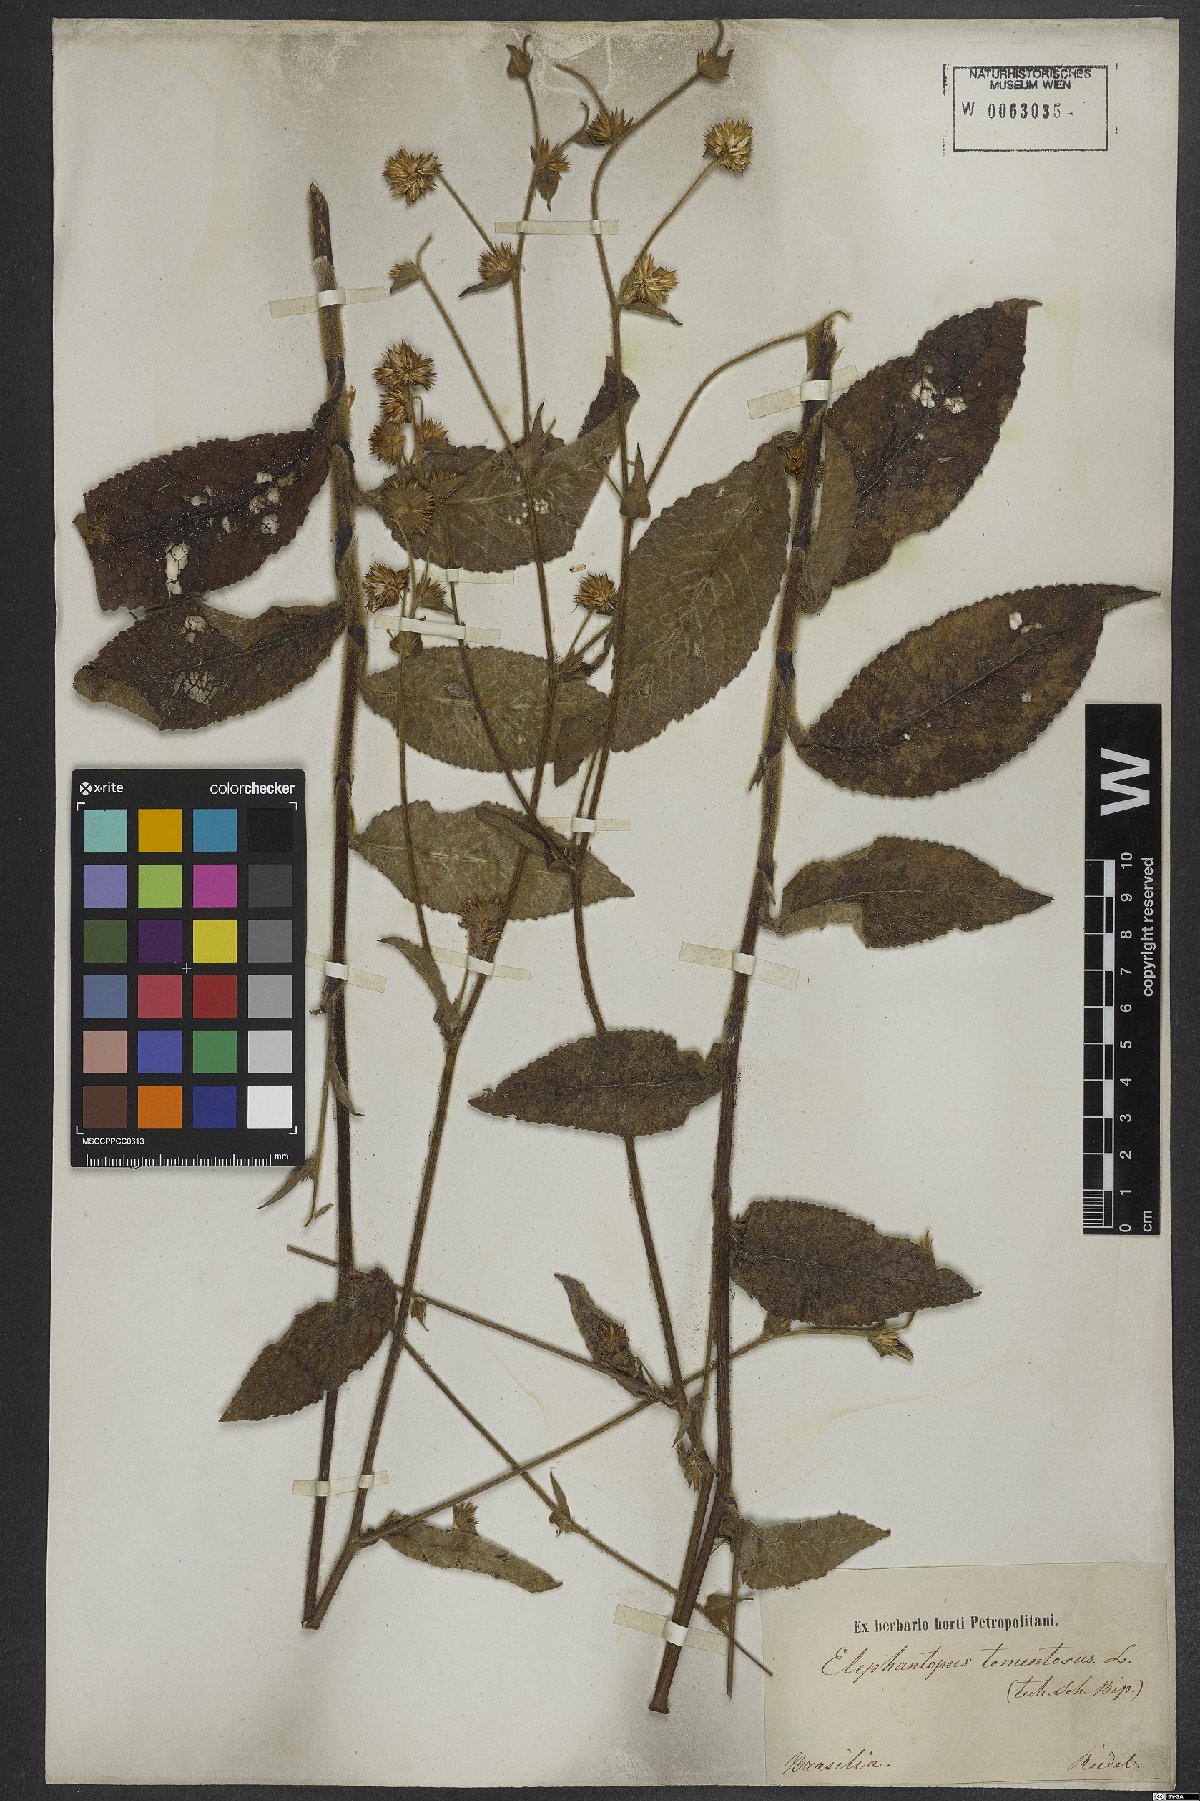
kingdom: Plantae
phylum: Tracheophyta
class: Magnoliopsida
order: Asterales
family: Asteraceae
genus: Elephantopus
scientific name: Elephantopus tomentosus
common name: Tobacco-weed
